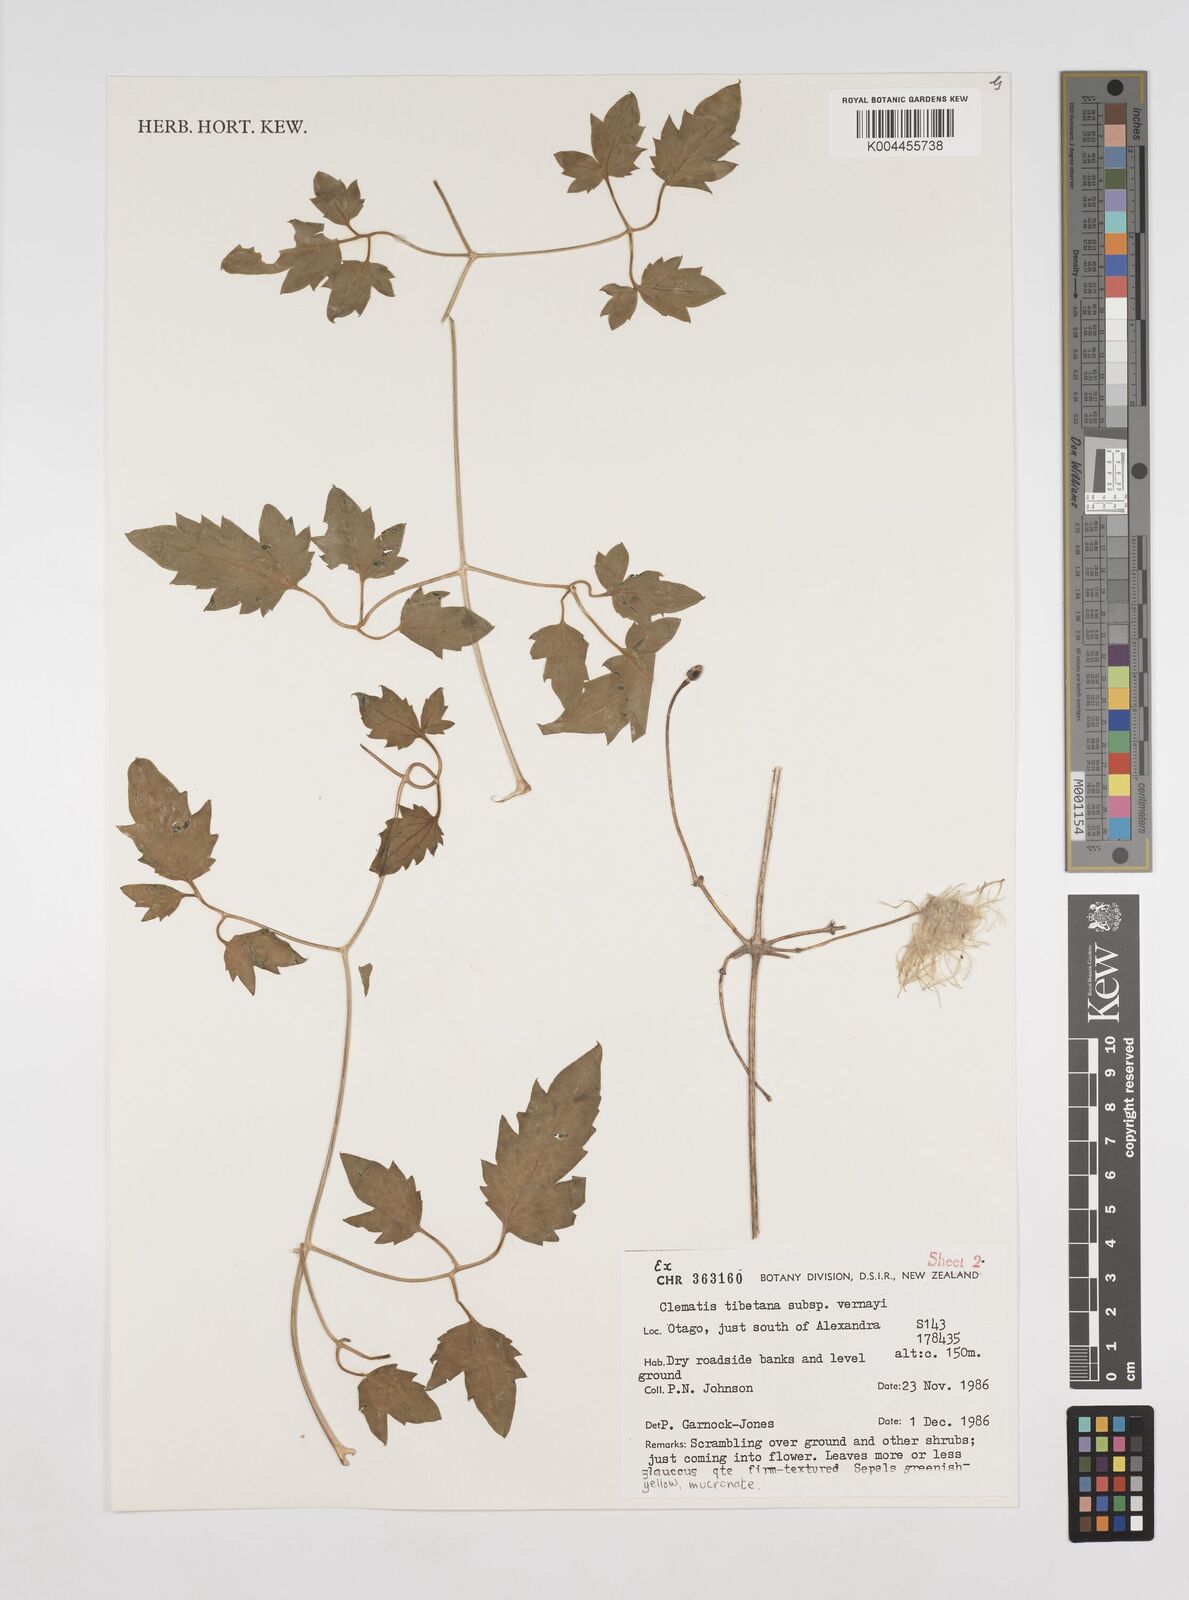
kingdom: Plantae
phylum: Tracheophyta
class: Magnoliopsida
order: Ranunculales
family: Ranunculaceae
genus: Clematis
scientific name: Clematis tibetana
